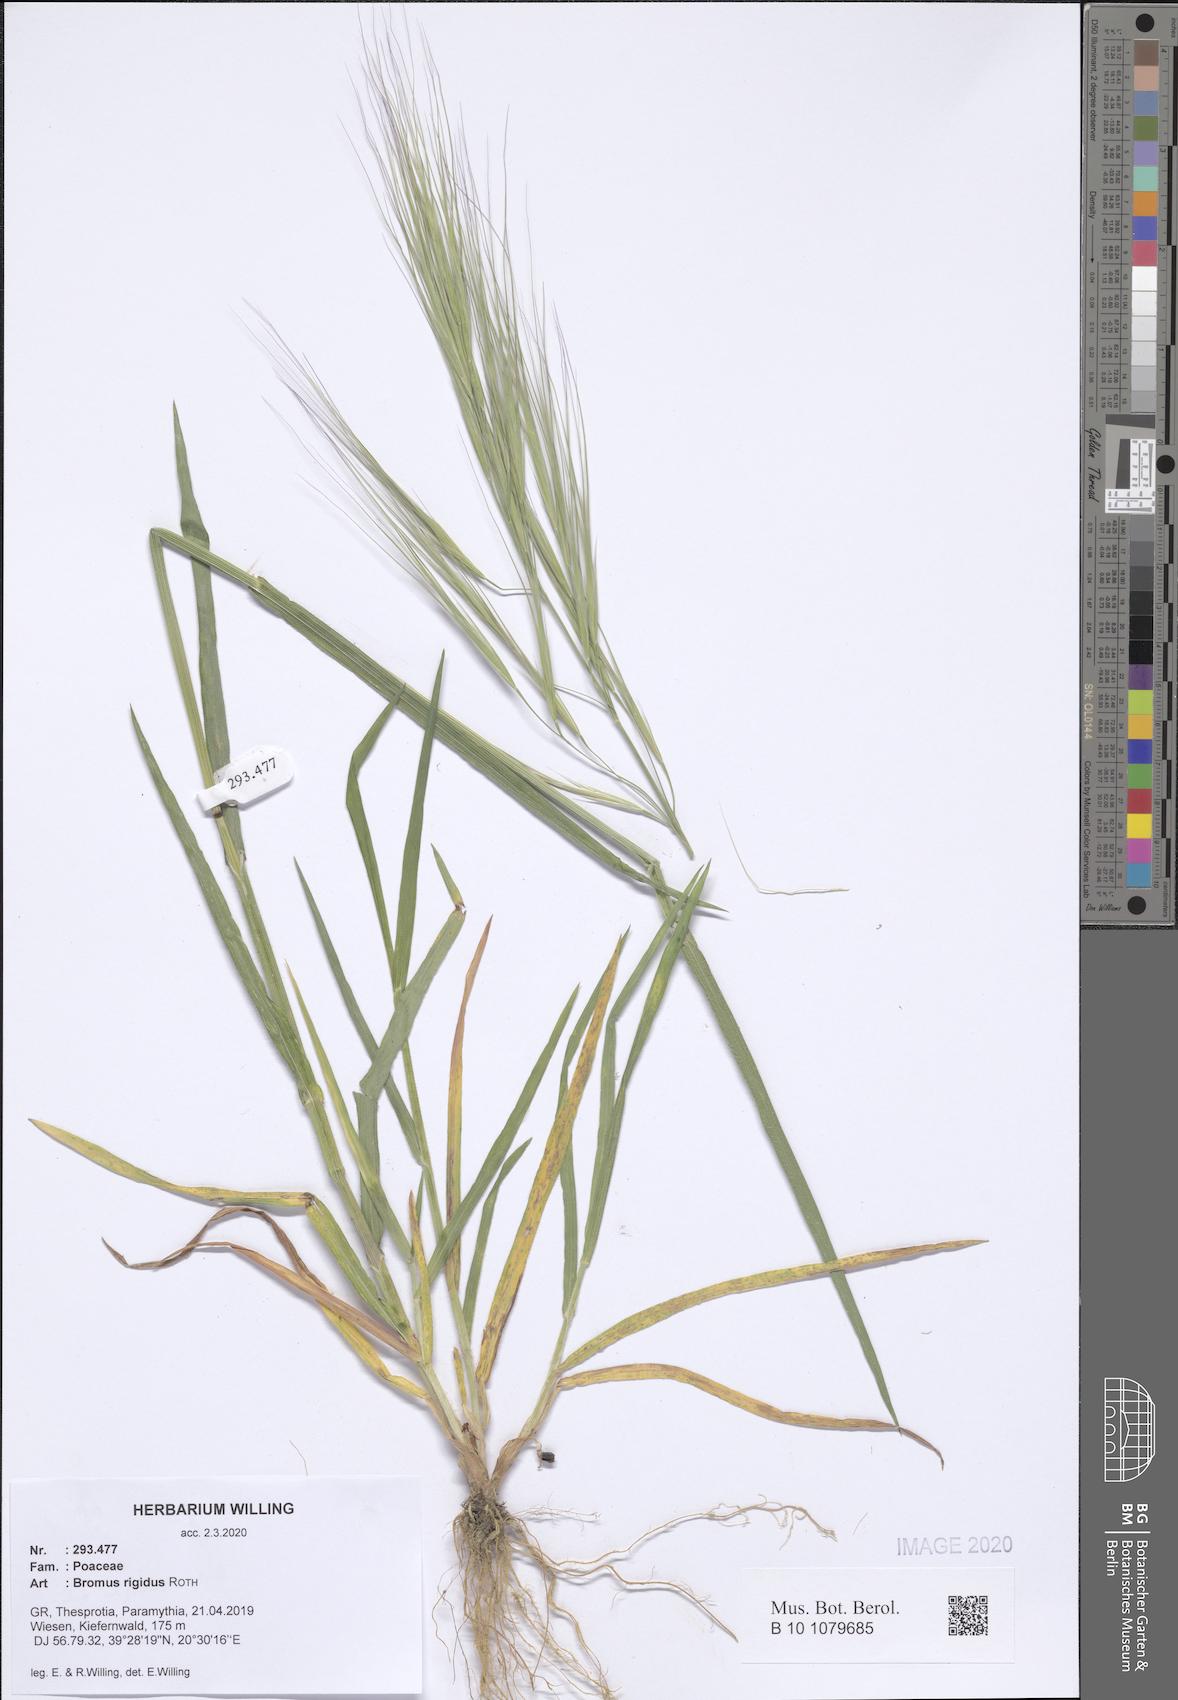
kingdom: Plantae
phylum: Tracheophyta
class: Liliopsida
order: Poales
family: Poaceae
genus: Bromus
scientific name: Bromus rigidus
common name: Ripgut brome
